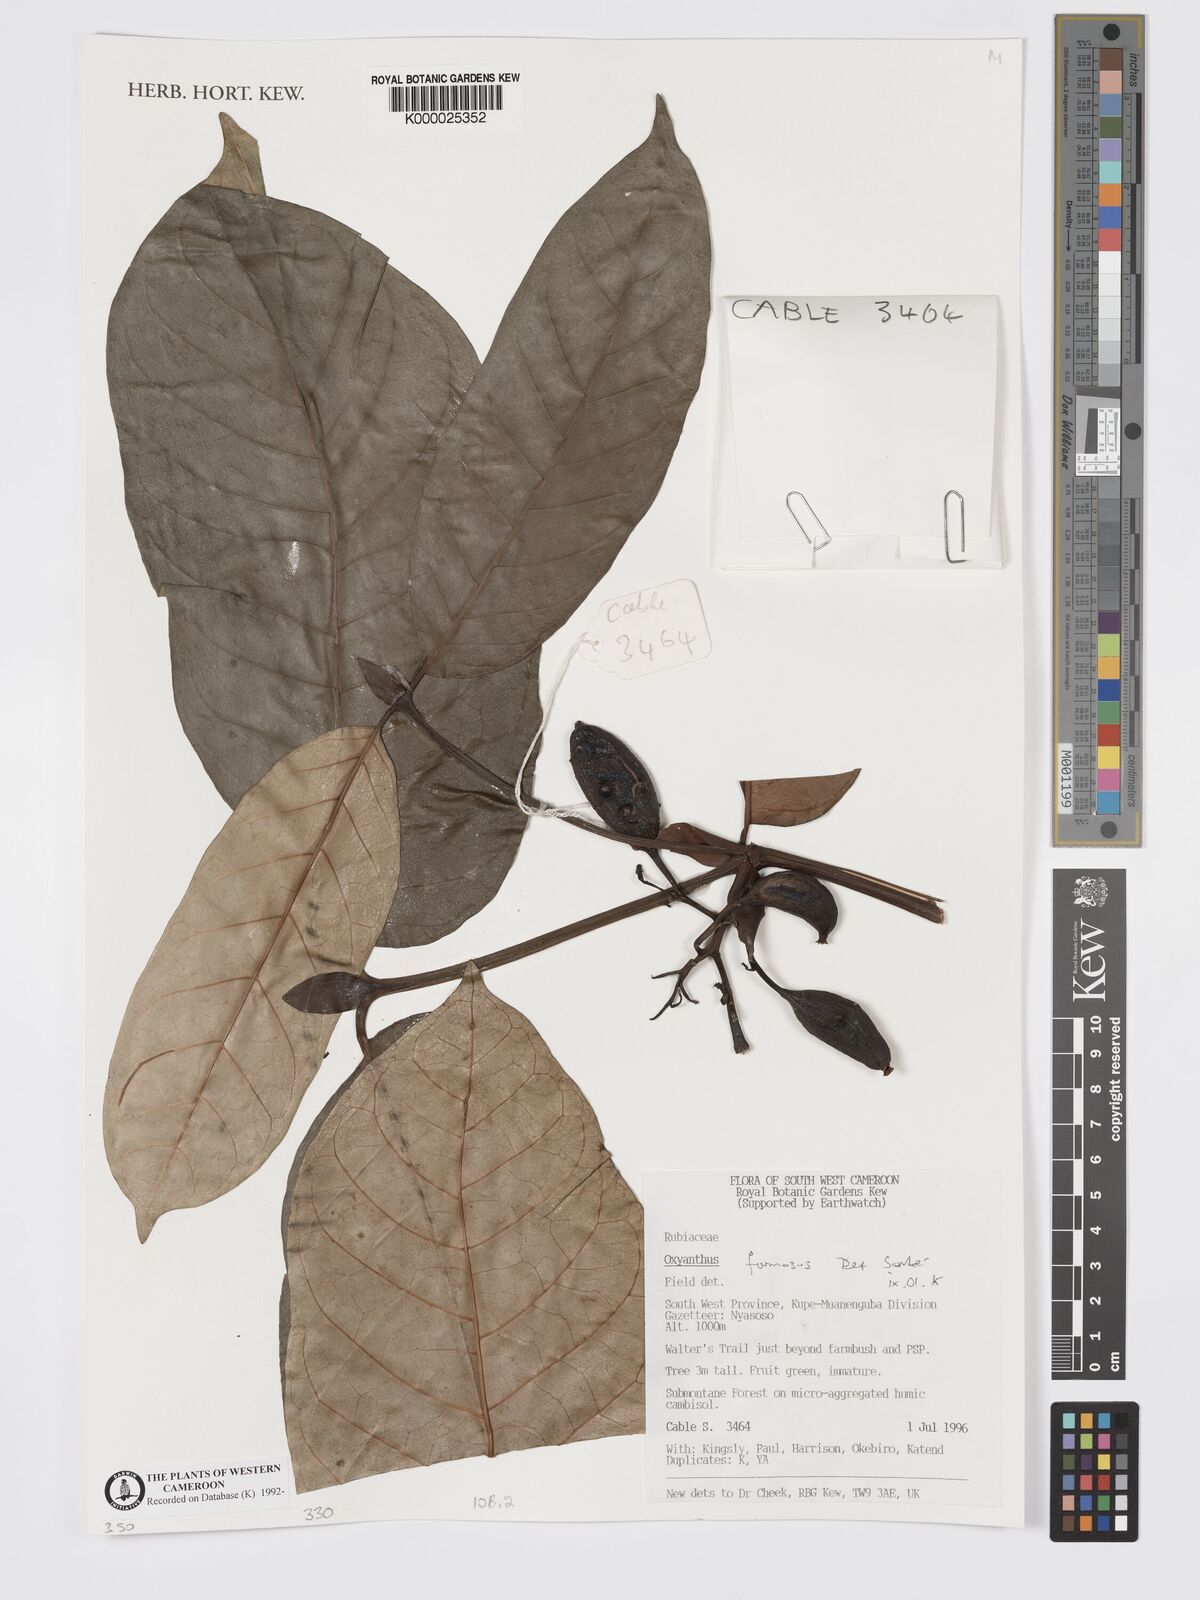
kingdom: Plantae
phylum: Tracheophyta
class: Magnoliopsida
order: Gentianales
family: Rubiaceae
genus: Oxyanthus
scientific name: Oxyanthus
